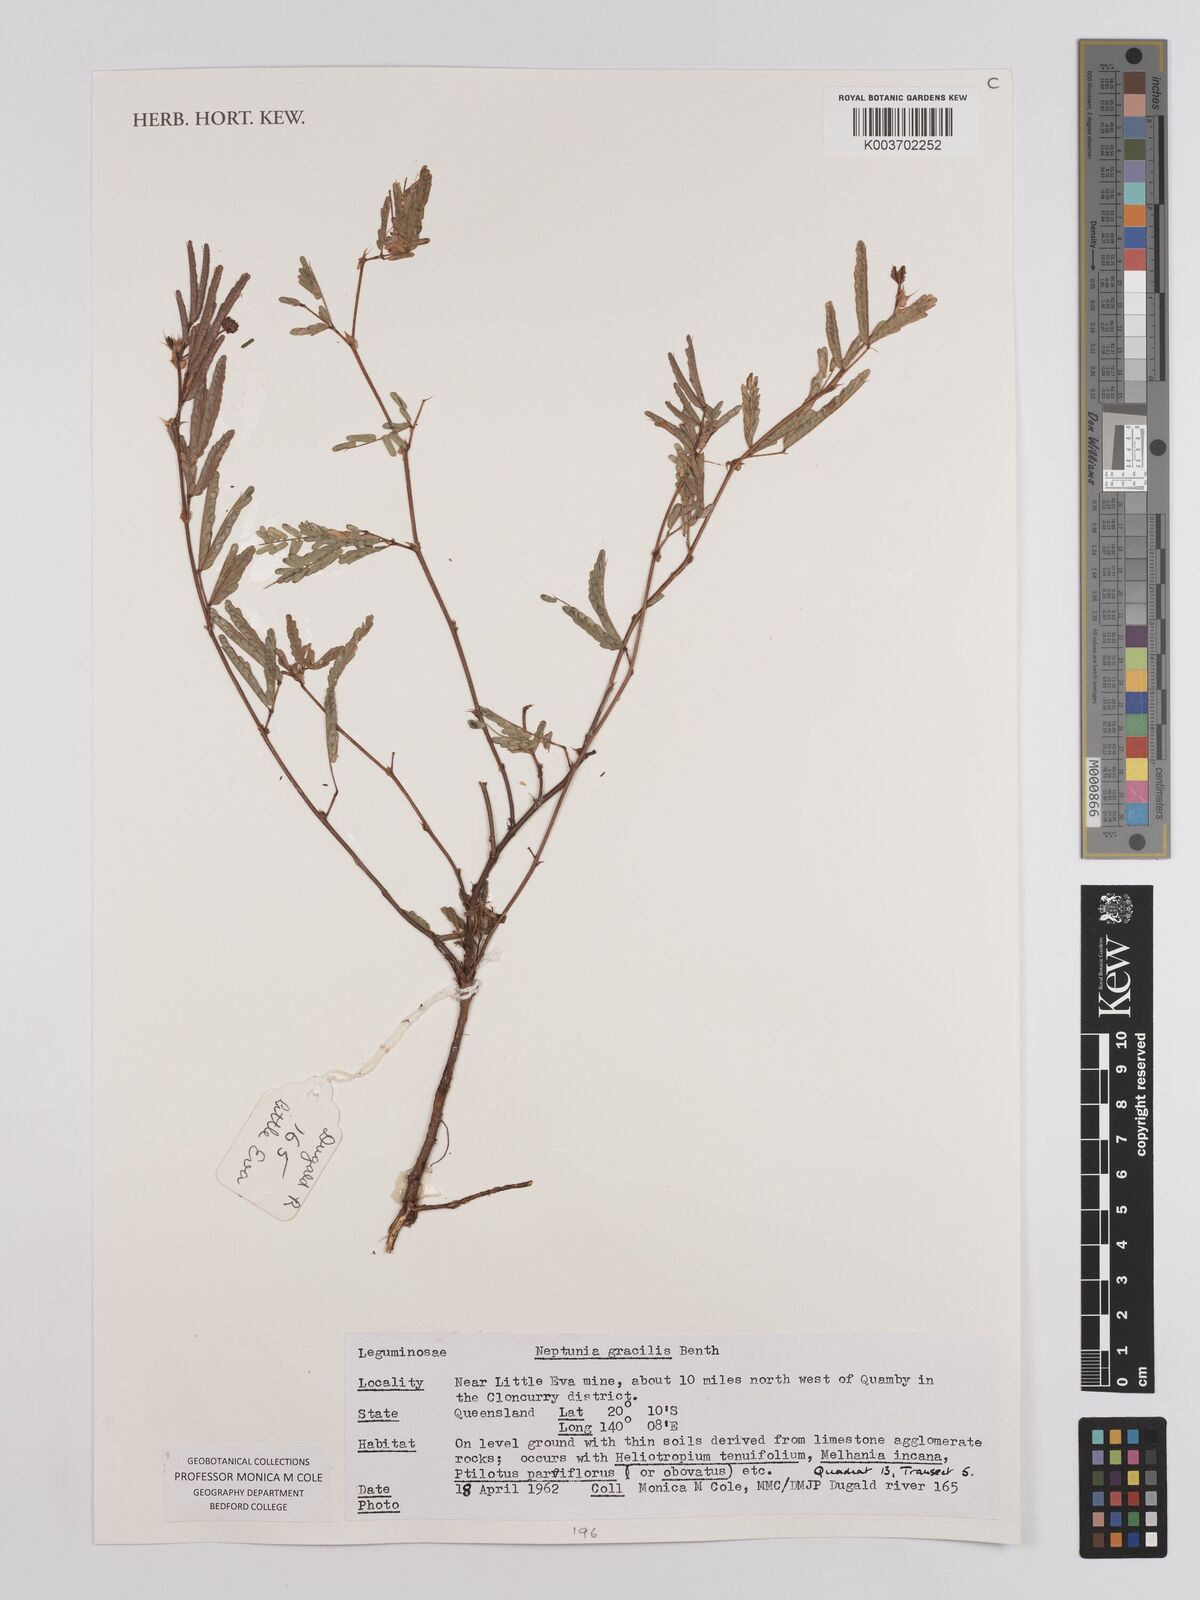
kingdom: Plantae
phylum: Tracheophyta
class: Magnoliopsida
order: Fabales
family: Fabaceae
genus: Neptunia
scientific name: Neptunia gracilis
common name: Sensitive-plant
